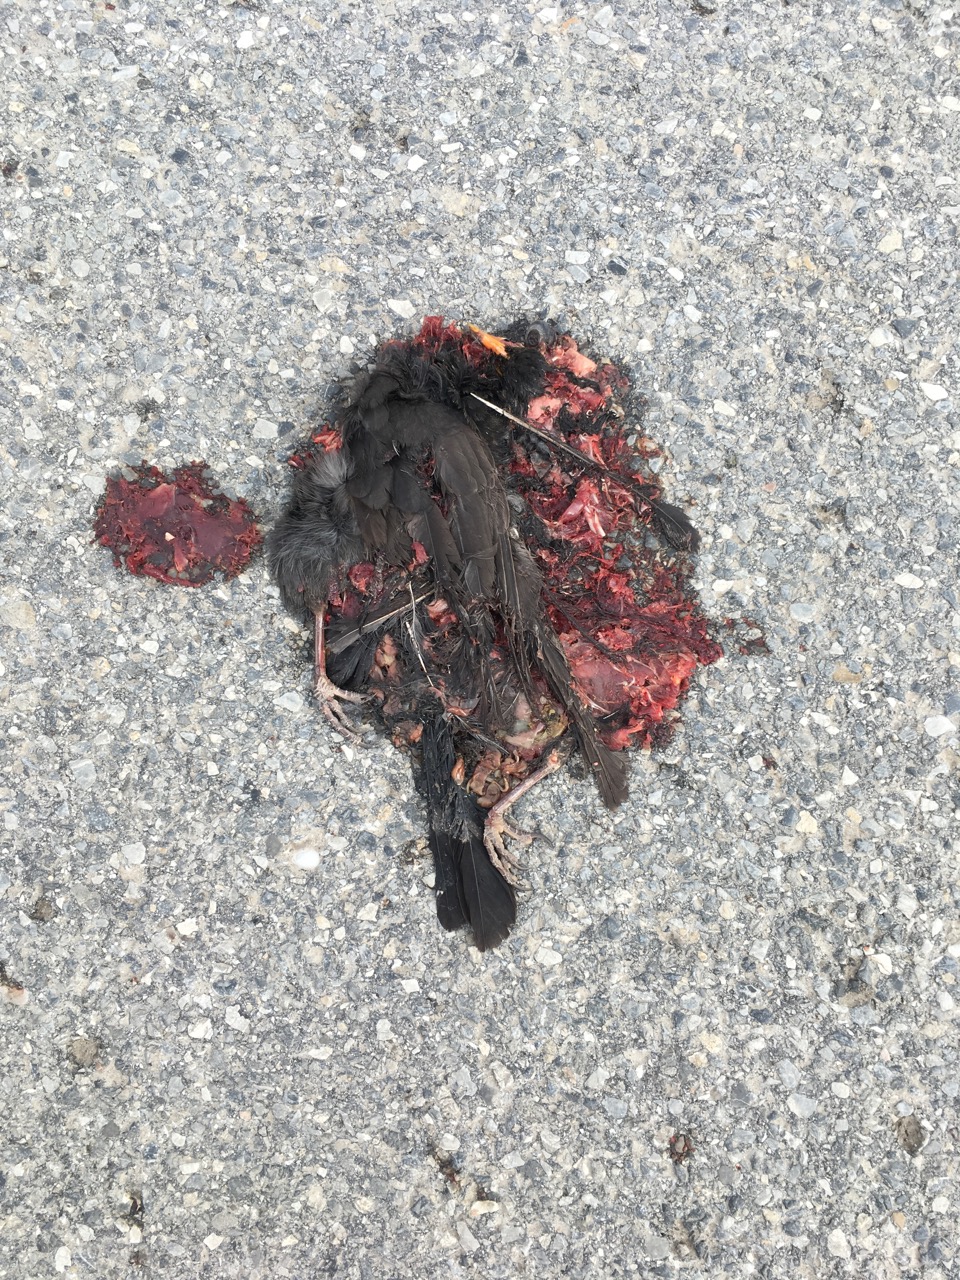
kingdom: Animalia
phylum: Chordata
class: Aves
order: Passeriformes
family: Turdidae
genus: Turdus
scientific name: Turdus merula
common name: Common blackbird
